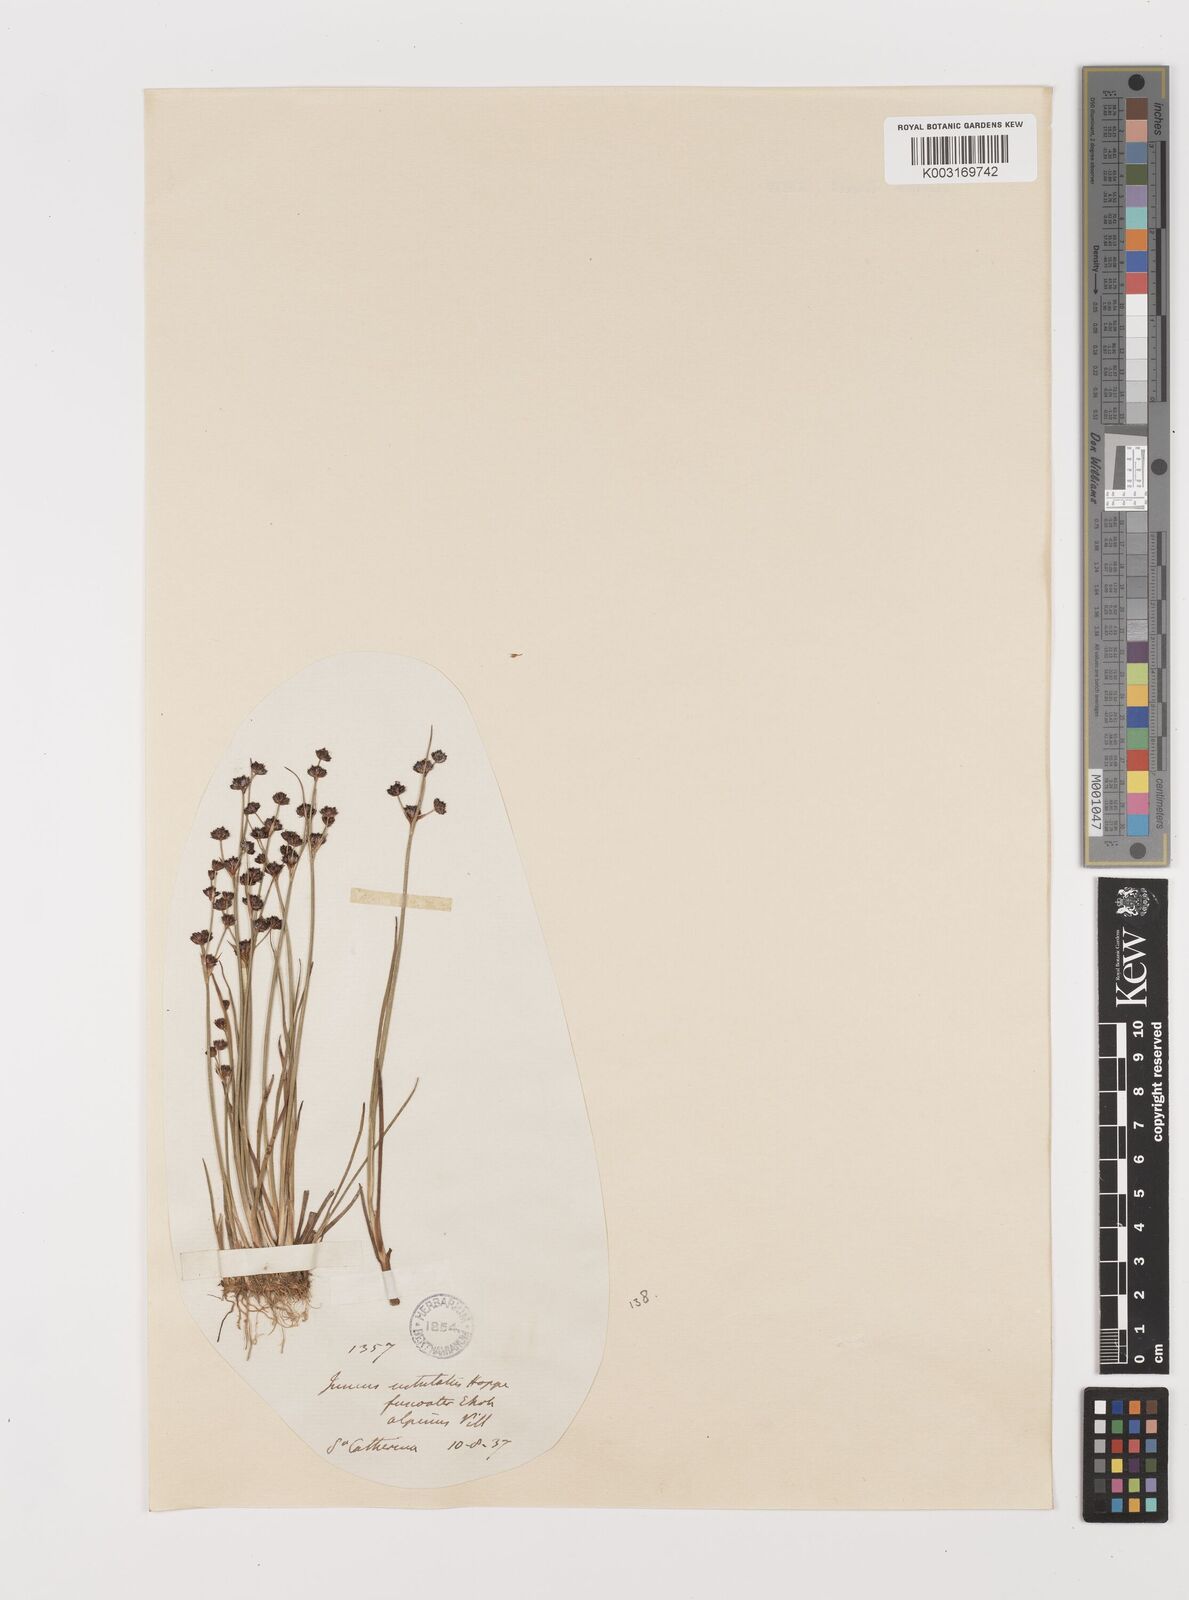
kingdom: Plantae
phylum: Tracheophyta
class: Liliopsida
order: Poales
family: Juncaceae
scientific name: Juncaceae
